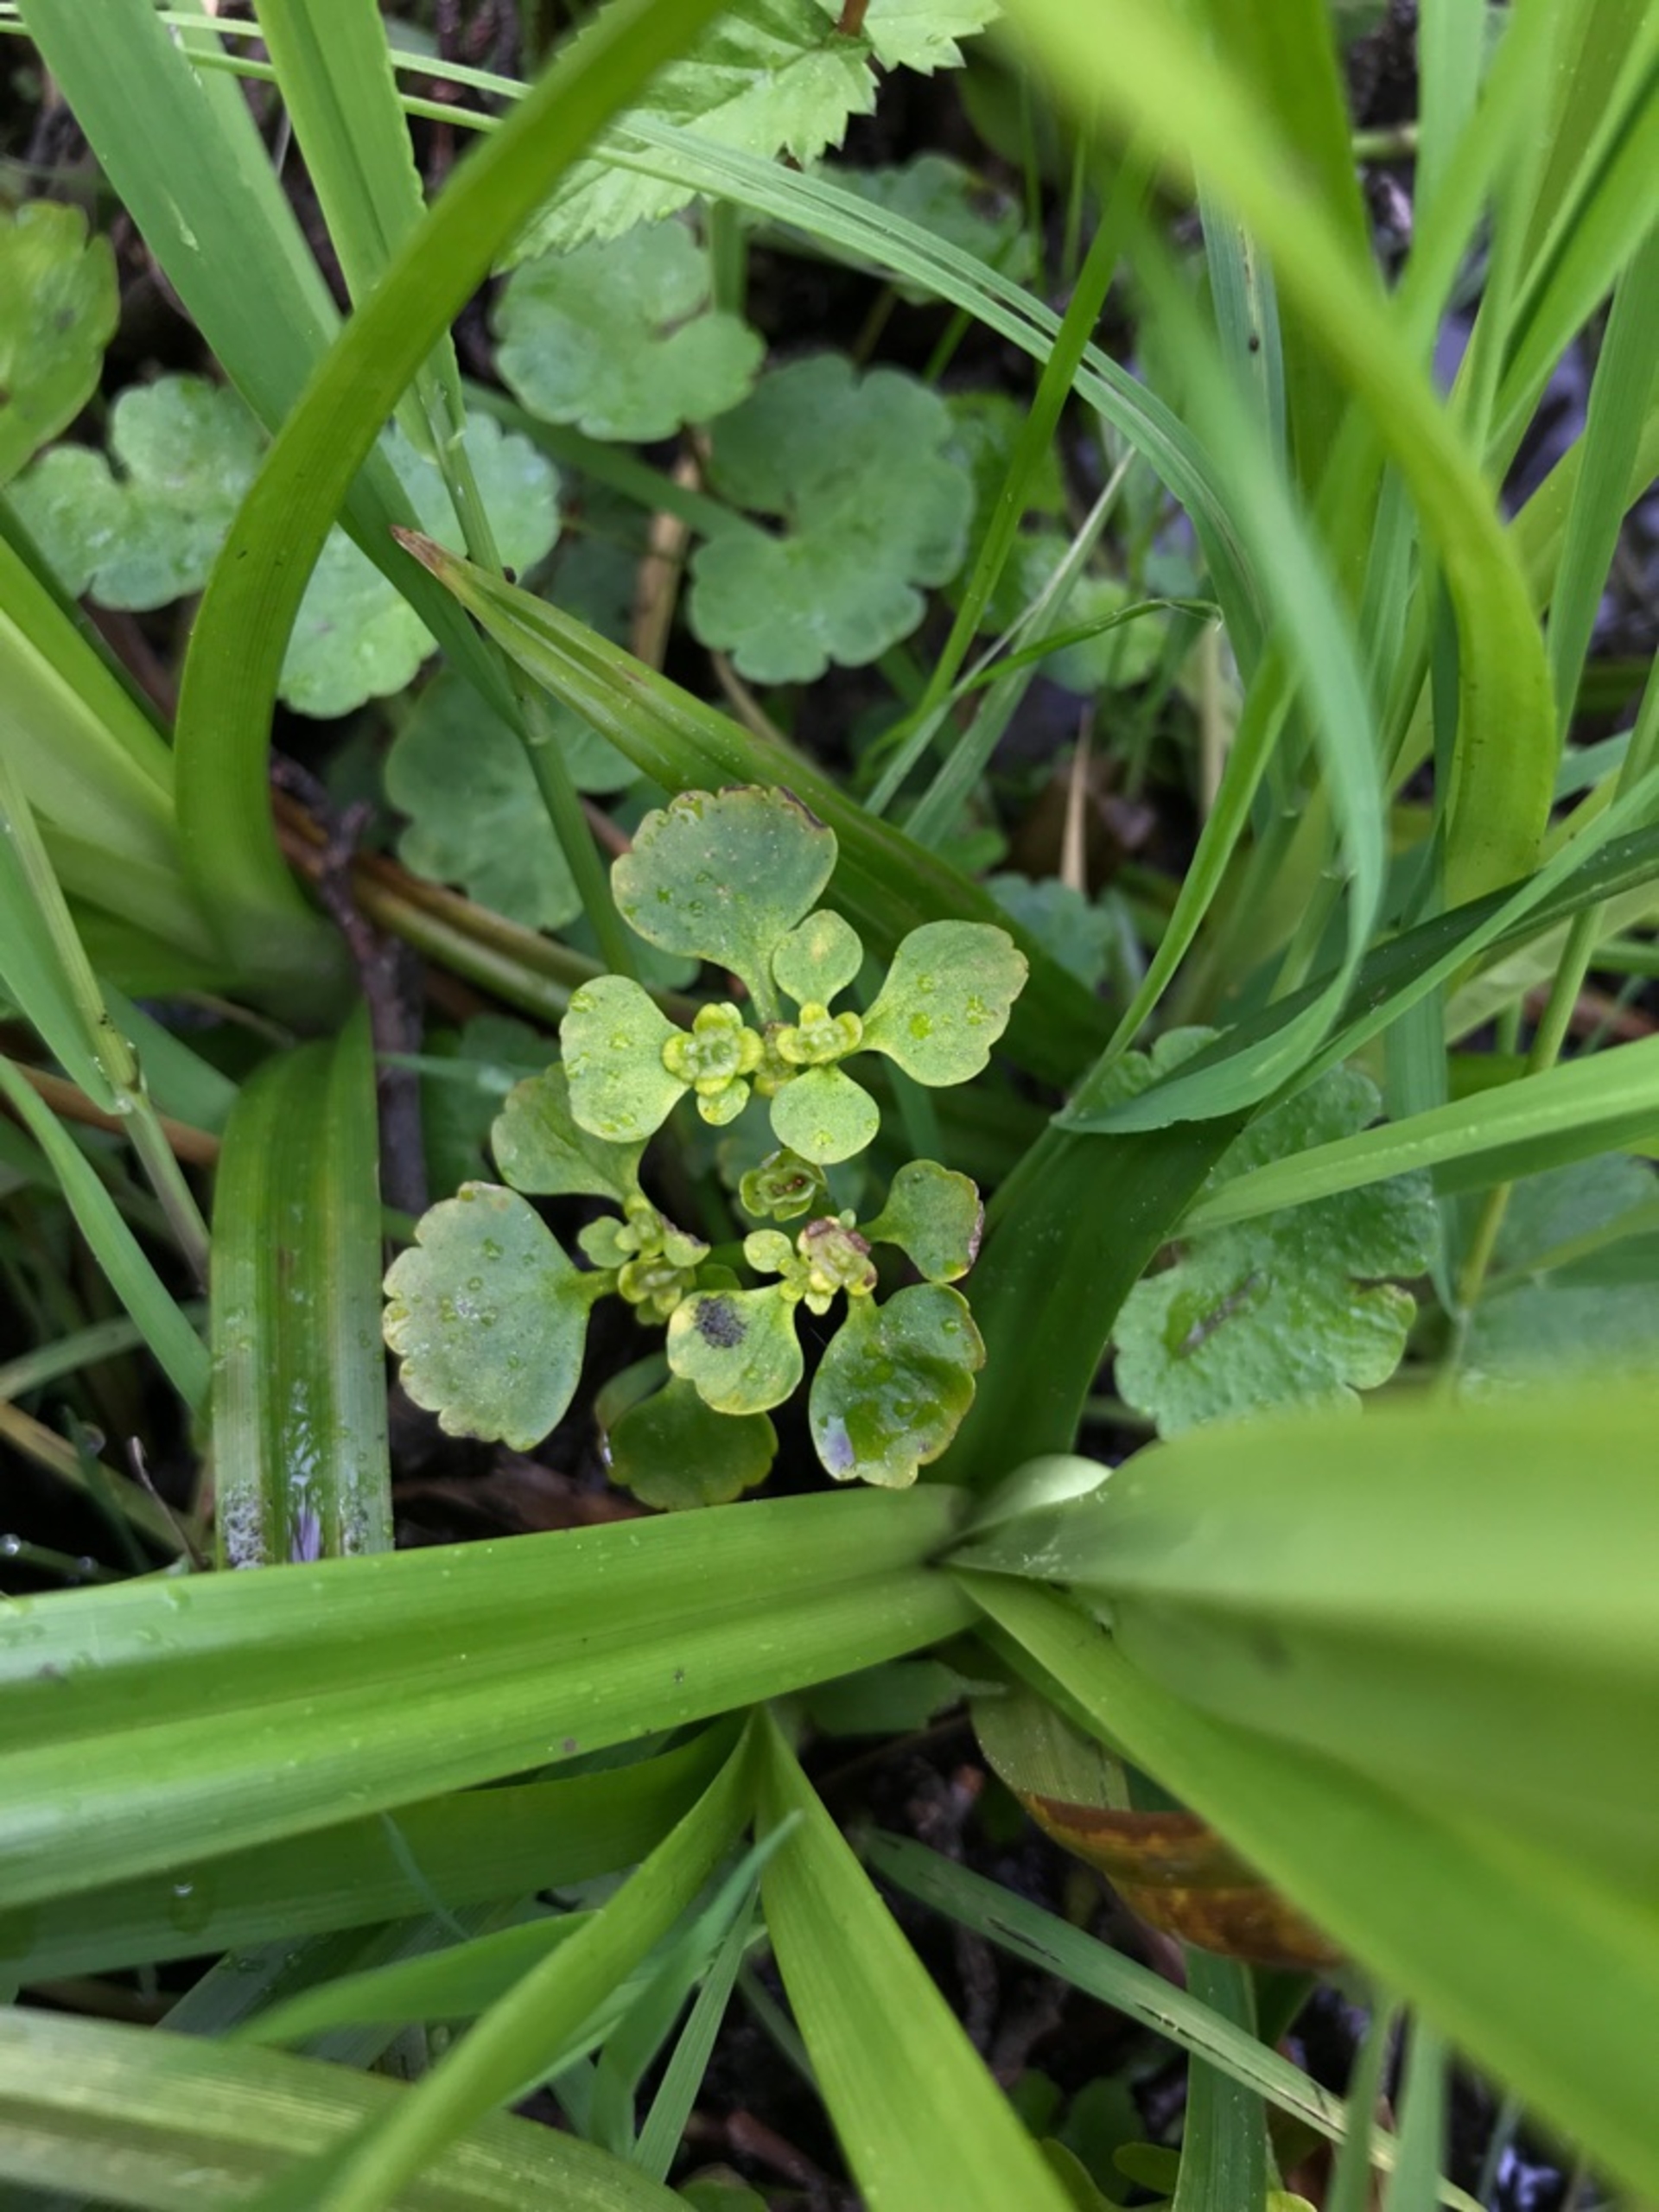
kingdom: Plantae
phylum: Tracheophyta
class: Magnoliopsida
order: Saxifragales
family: Saxifragaceae
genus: Chrysosplenium
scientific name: Chrysosplenium alternifolium
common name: Almindelig milturt
